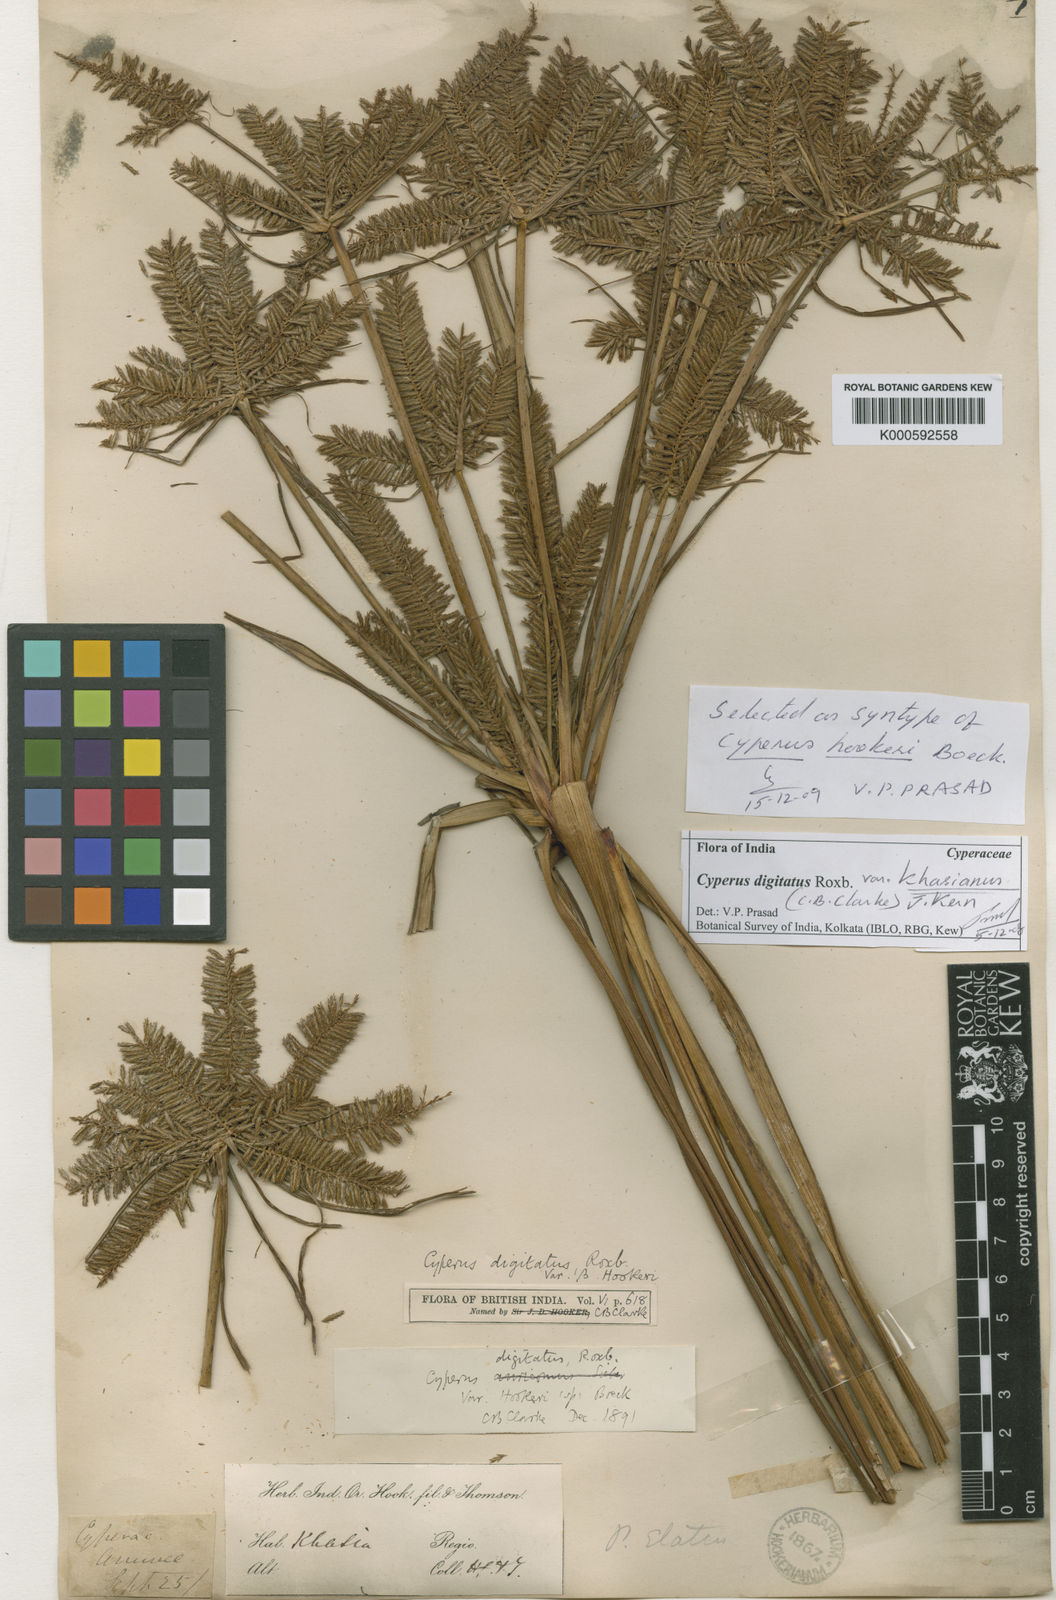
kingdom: Plantae
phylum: Tracheophyta
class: Liliopsida
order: Poales
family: Cyperaceae
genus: Cyperus
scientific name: Cyperus digitatus
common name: Finger flatsedge
